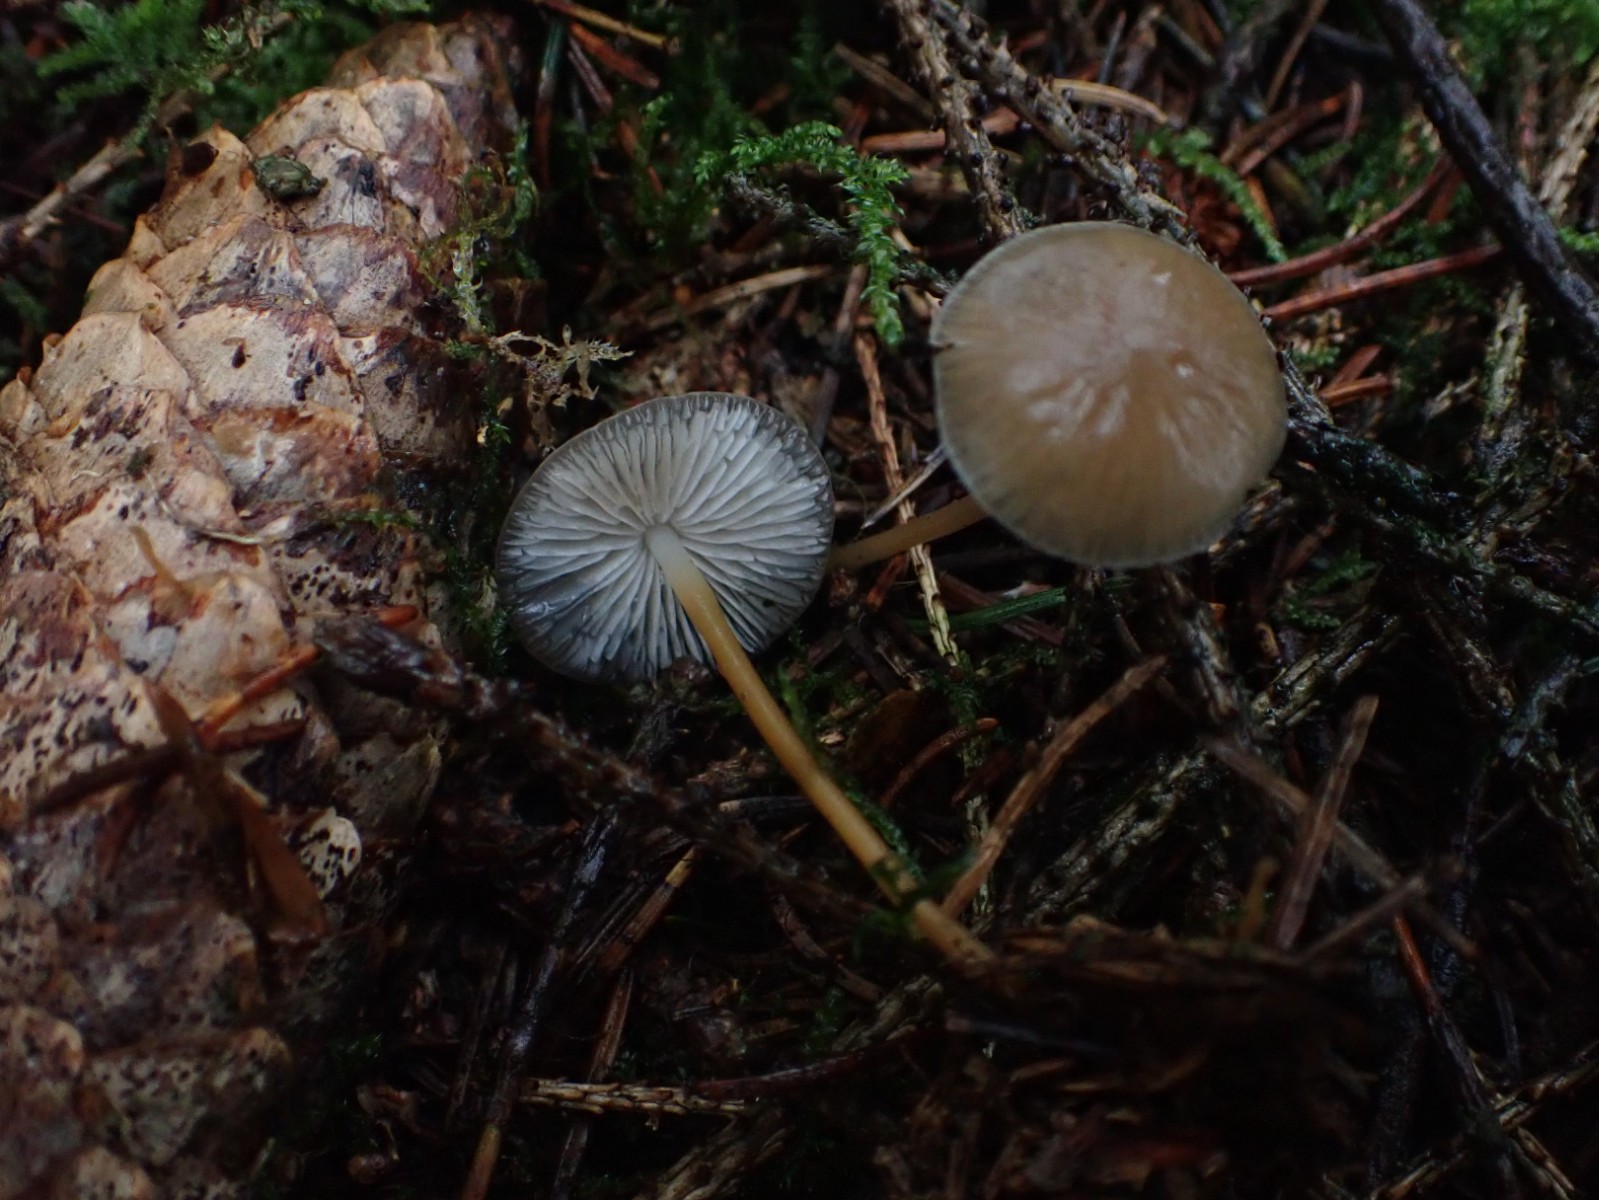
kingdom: Fungi
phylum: Basidiomycota
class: Agaricomycetes
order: Agaricales
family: Physalacriaceae
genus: Strobilurus
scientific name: Strobilurus esculentus
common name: gran-koglehat
